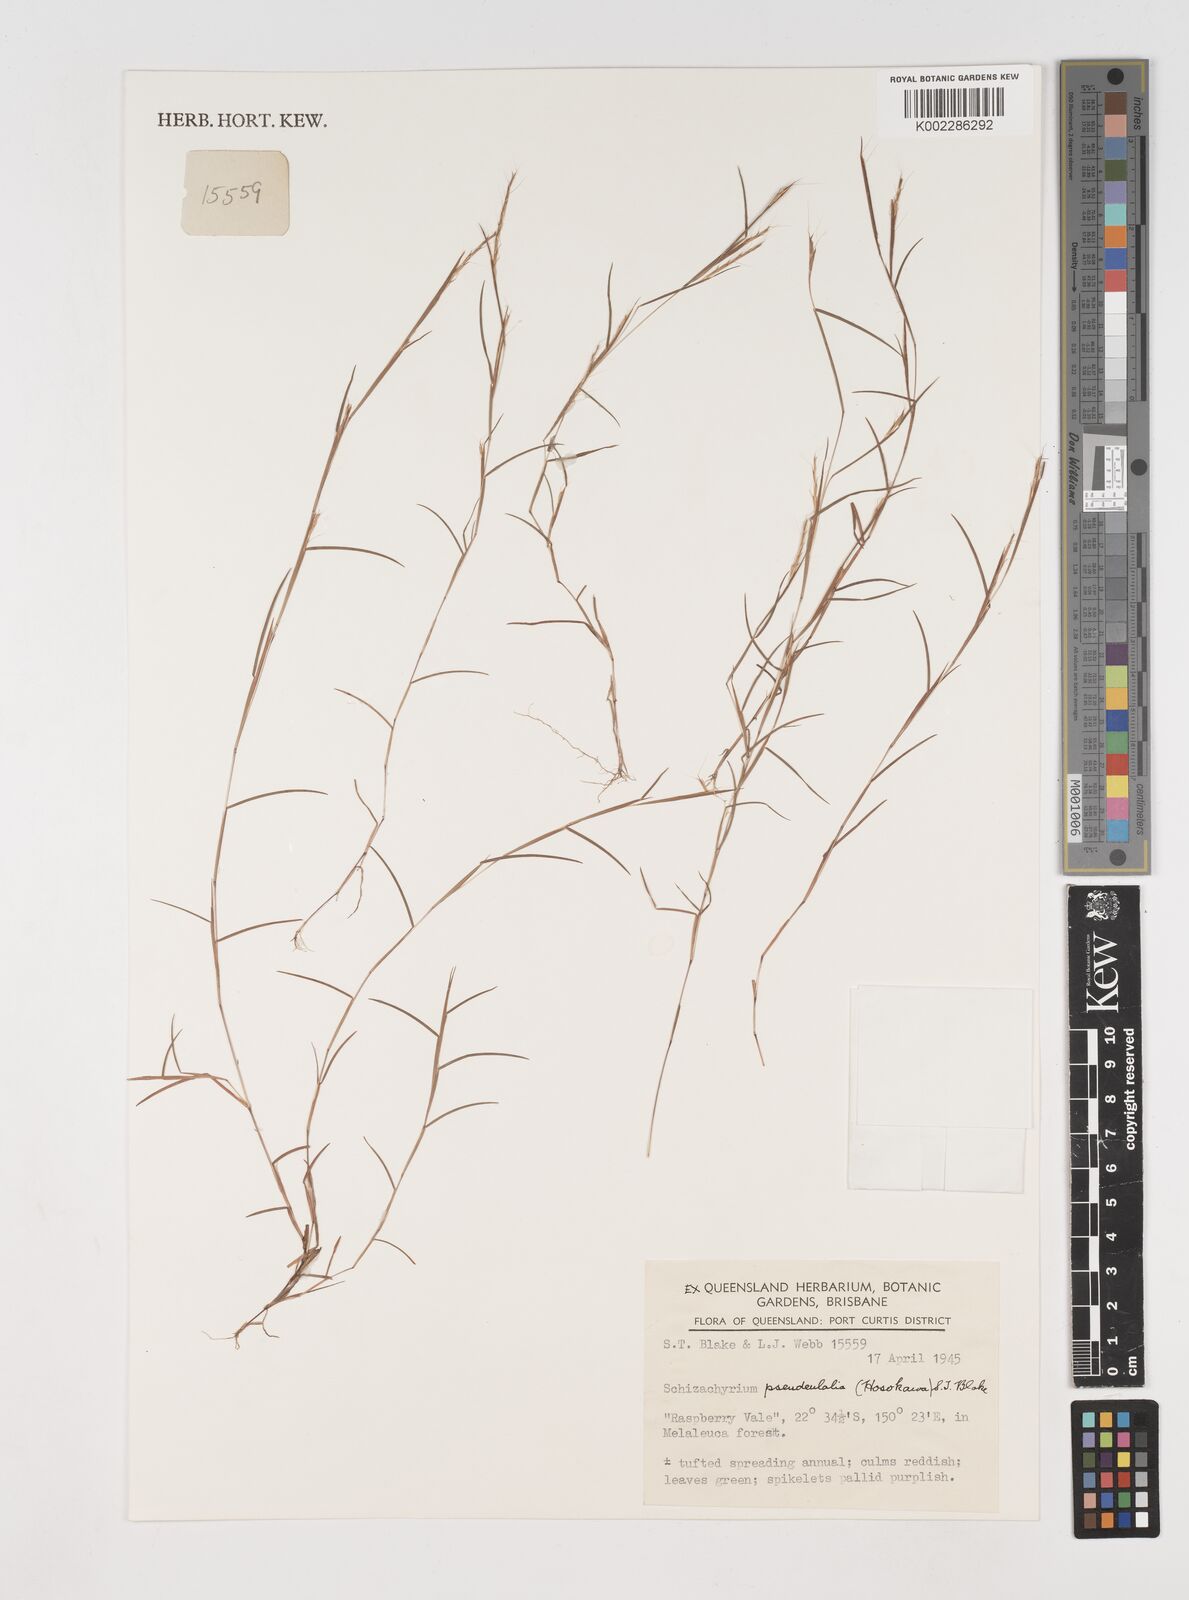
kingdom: Plantae
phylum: Tracheophyta
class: Liliopsida
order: Poales
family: Poaceae
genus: Schizachyrium
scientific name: Schizachyrium pseudeulalia
